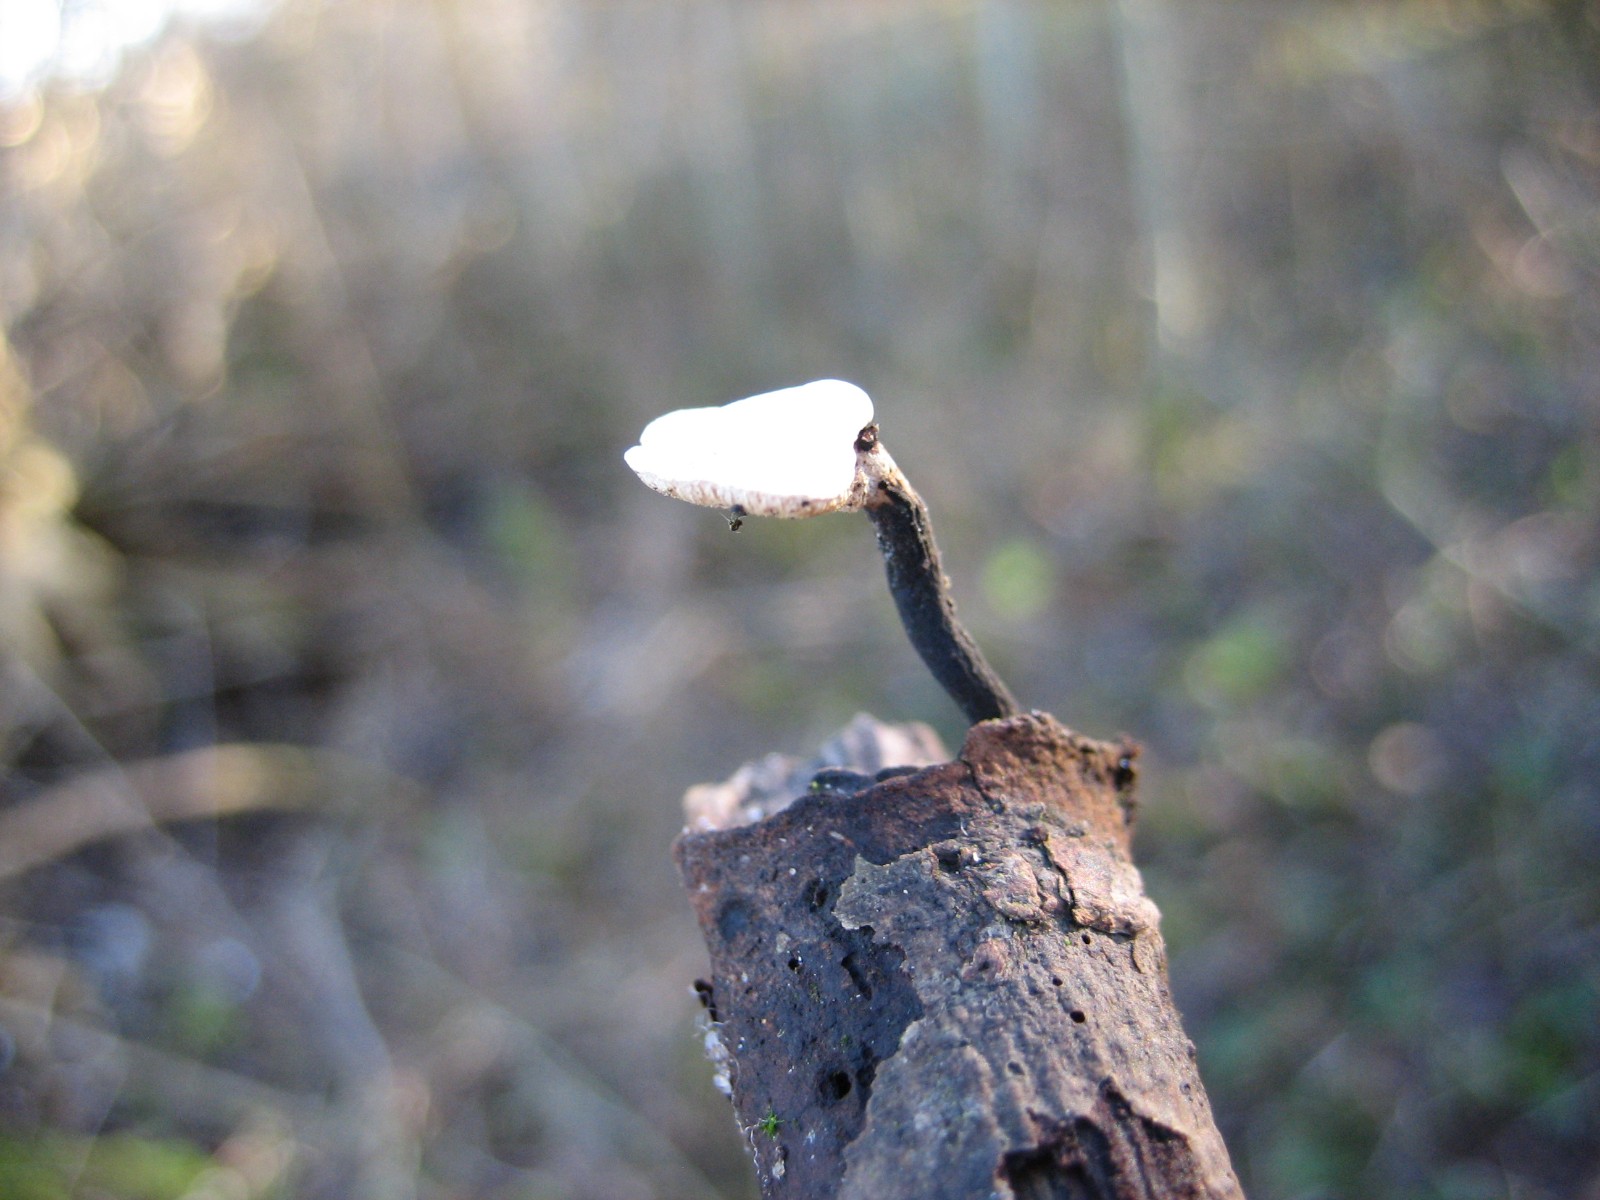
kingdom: Fungi
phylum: Basidiomycota
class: Agaricomycetes
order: Polyporales
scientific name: Polyporales
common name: poresvampordenen
